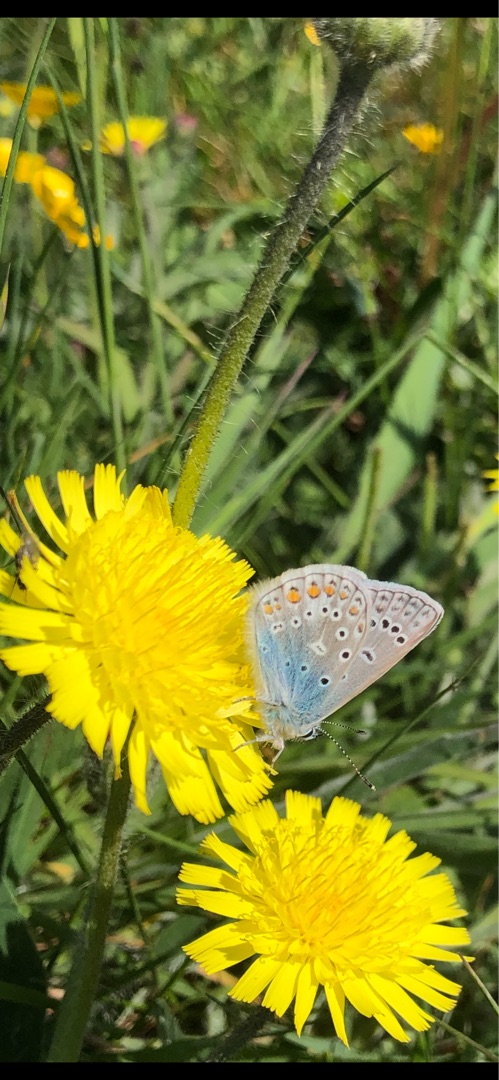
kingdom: Animalia
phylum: Arthropoda
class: Insecta
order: Lepidoptera
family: Lycaenidae
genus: Polyommatus
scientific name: Polyommatus icarus
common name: Almindelig blåfugl
